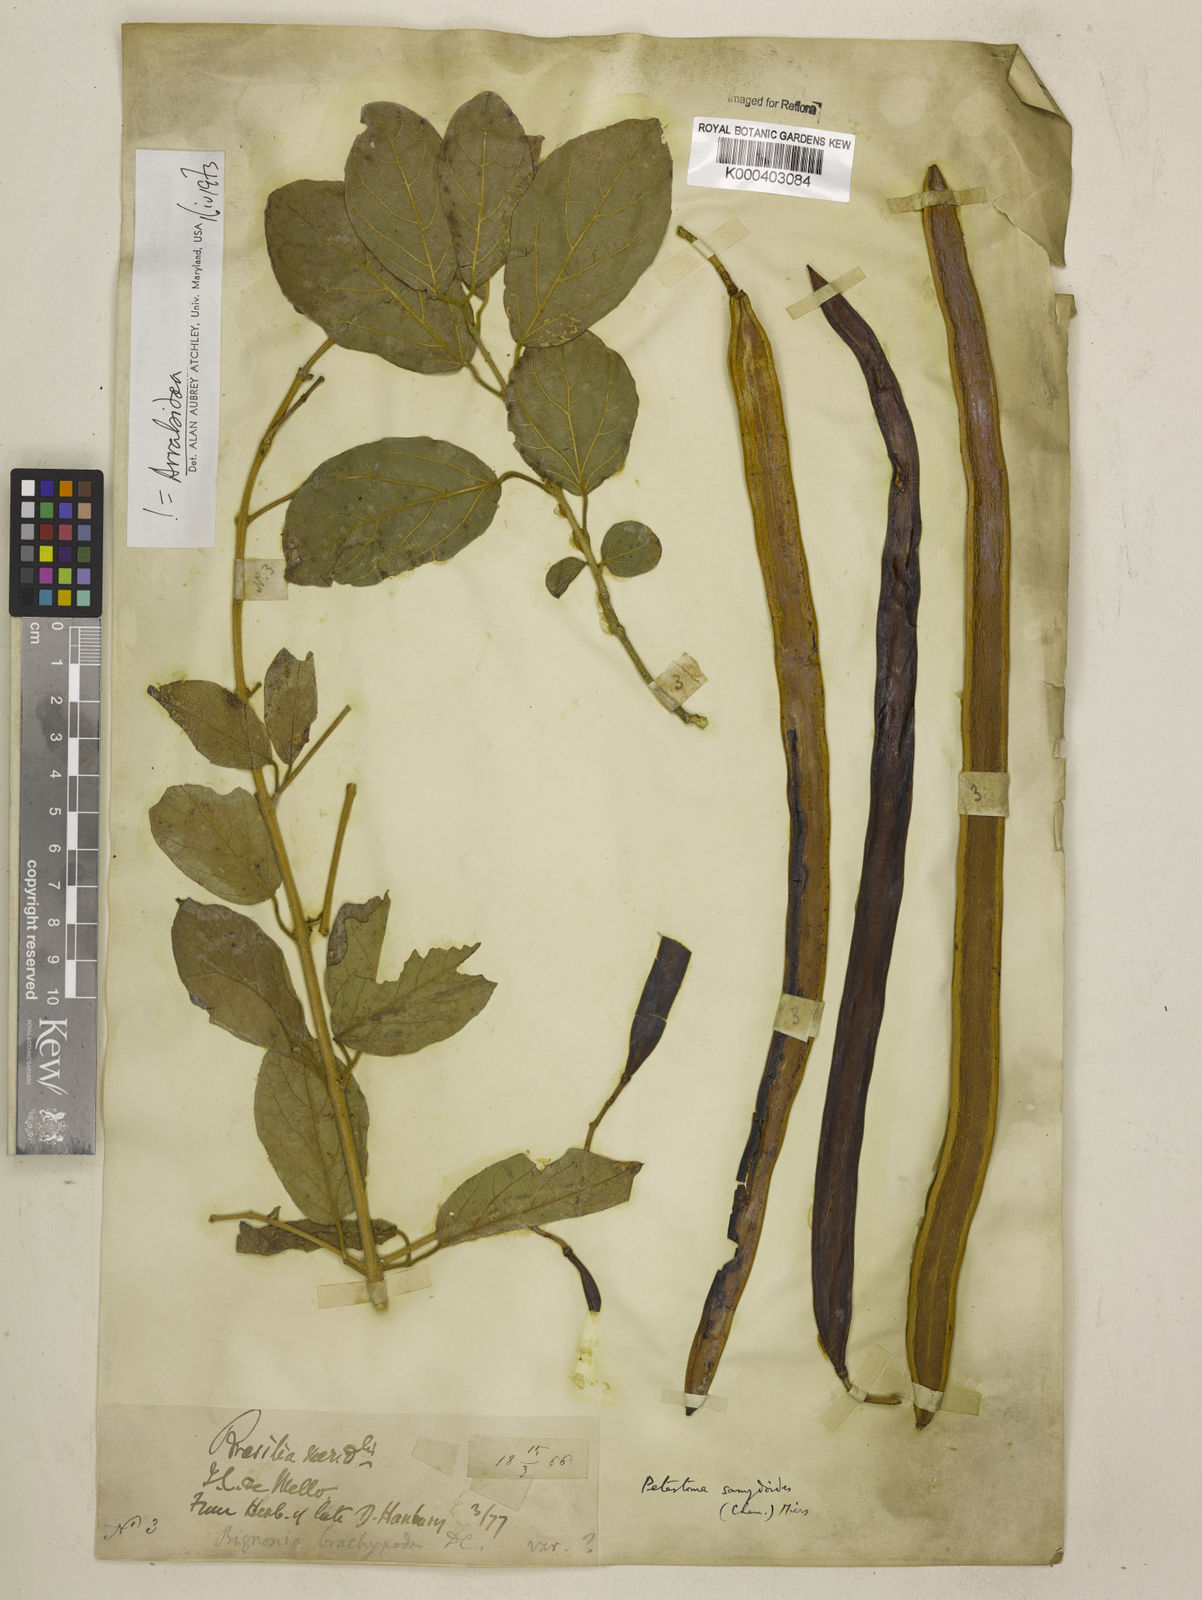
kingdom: Plantae
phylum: Tracheophyta
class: Magnoliopsida
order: Lamiales
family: Bignoniaceae
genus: Fridericia
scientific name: Fridericia samydoides
